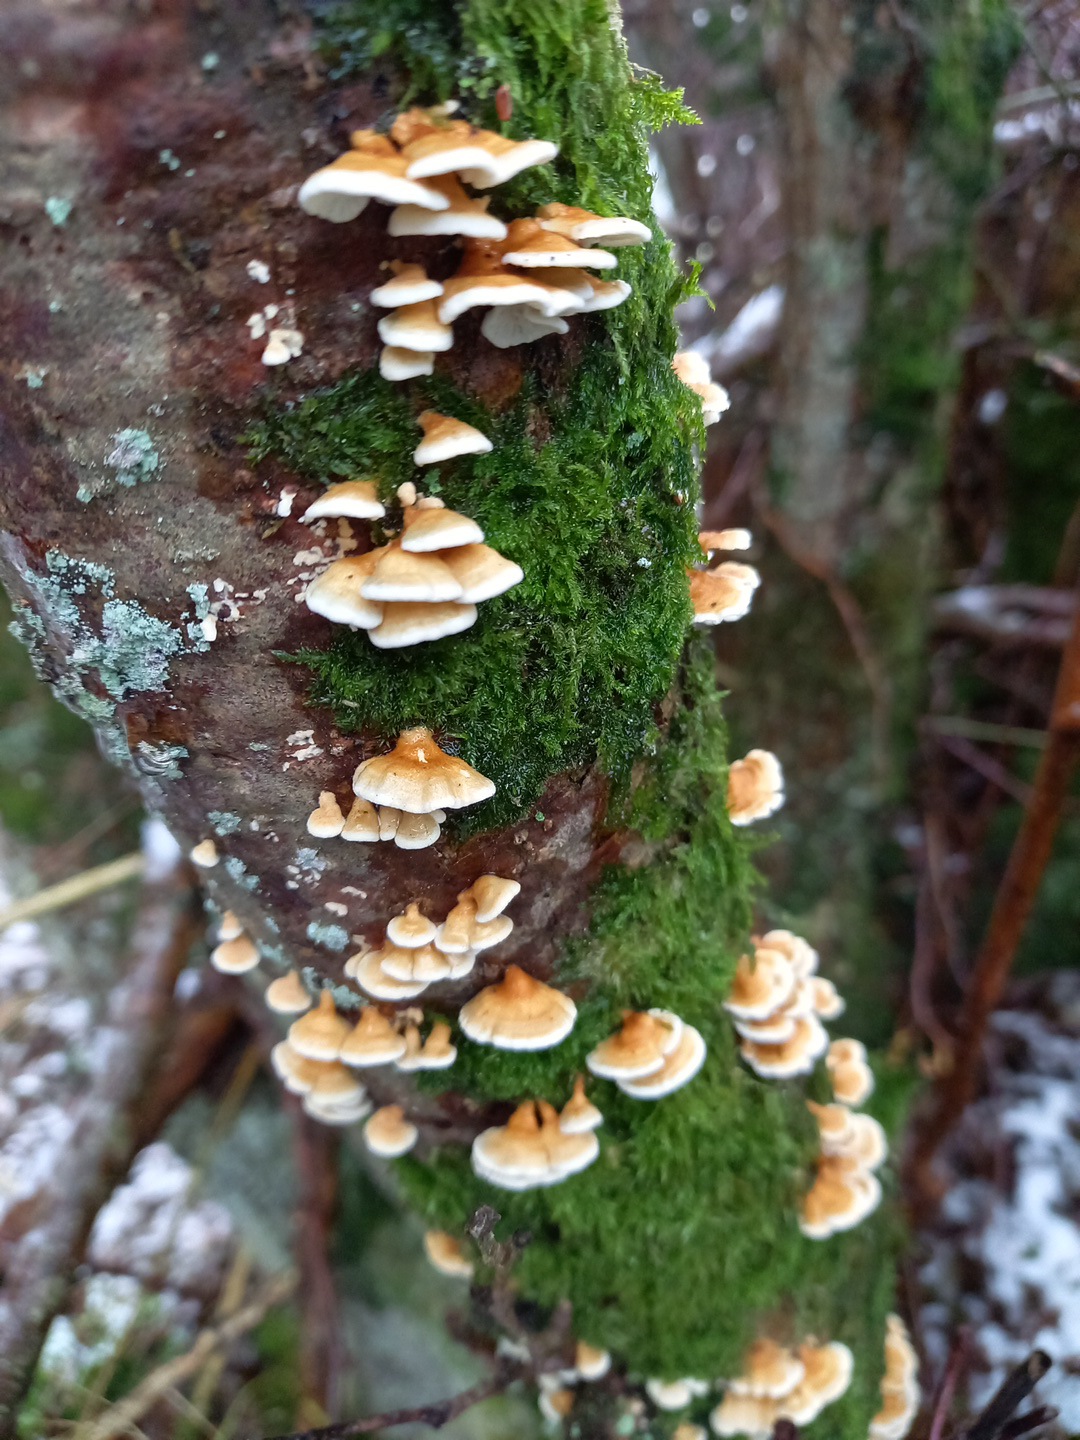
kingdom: Fungi
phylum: Basidiomycota
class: Agaricomycetes
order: Amylocorticiales
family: Amylocorticiaceae
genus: Plicaturopsis
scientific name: Plicaturopsis crispa
